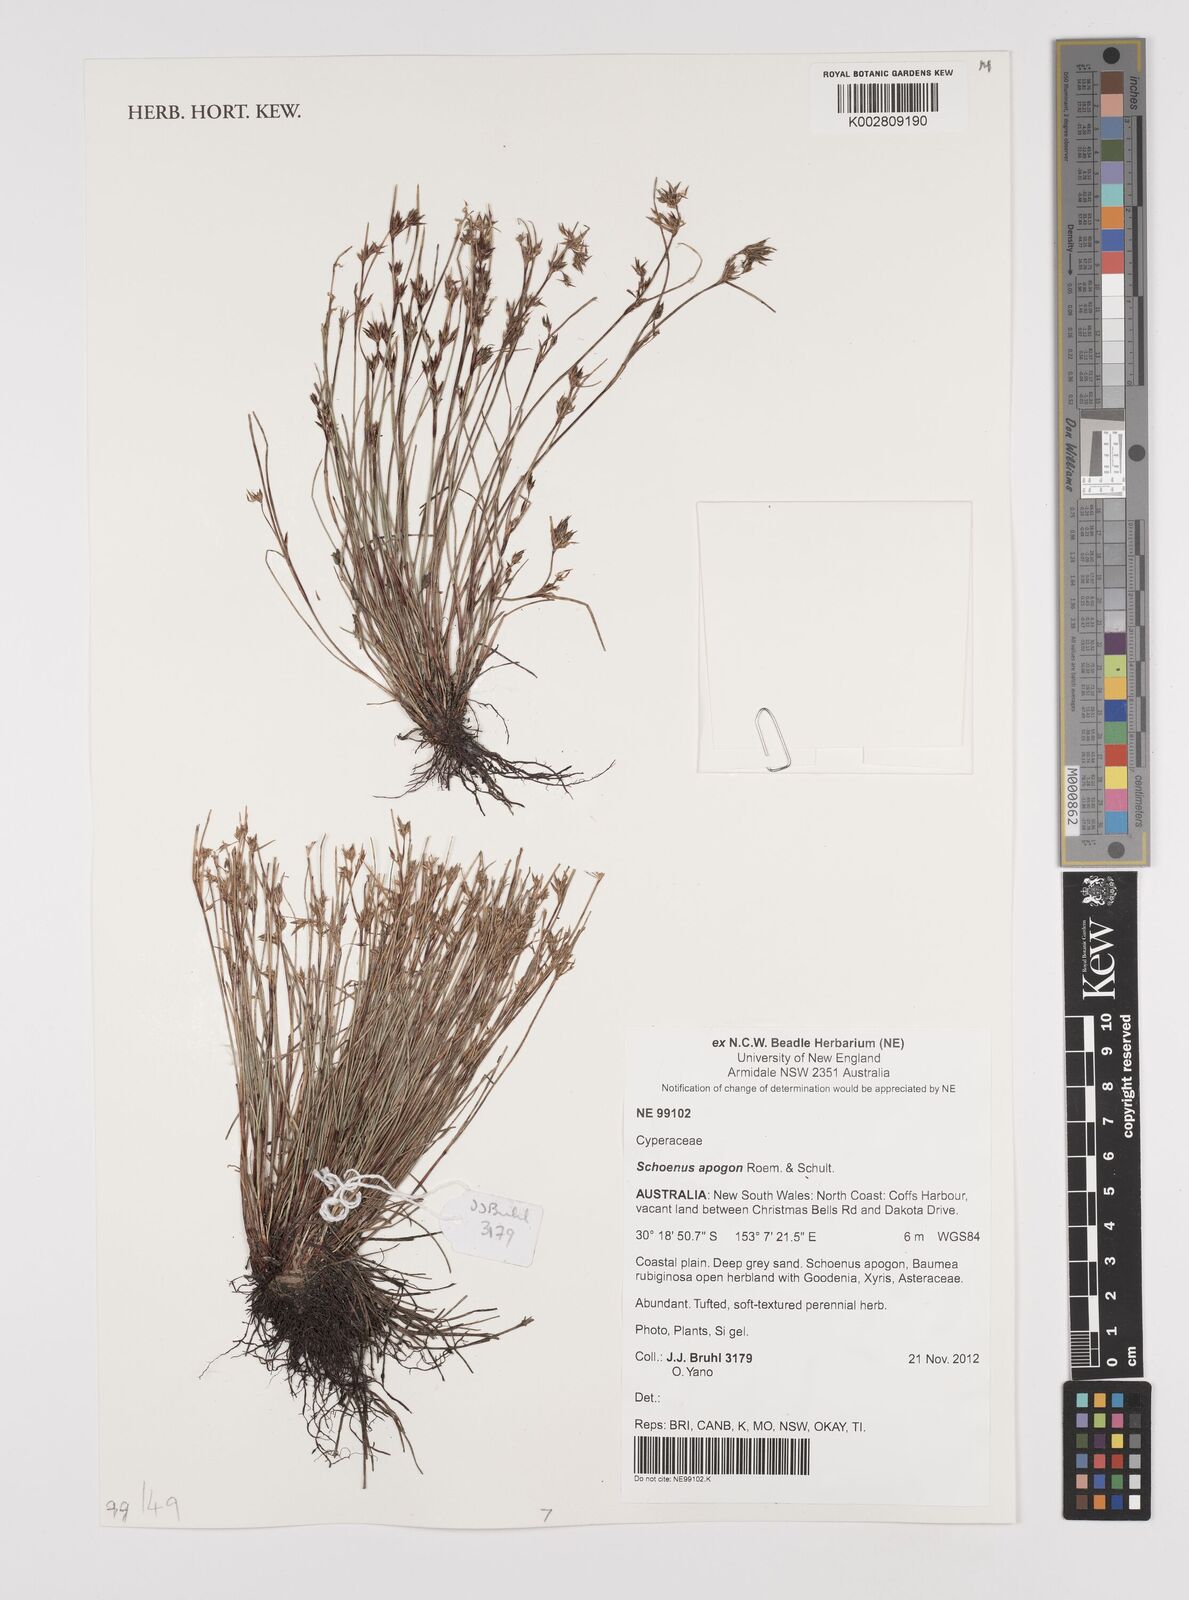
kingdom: Plantae
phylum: Tracheophyta
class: Liliopsida
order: Poales
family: Cyperaceae
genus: Schoenus
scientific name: Schoenus apogon
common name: Smooth bogrush
